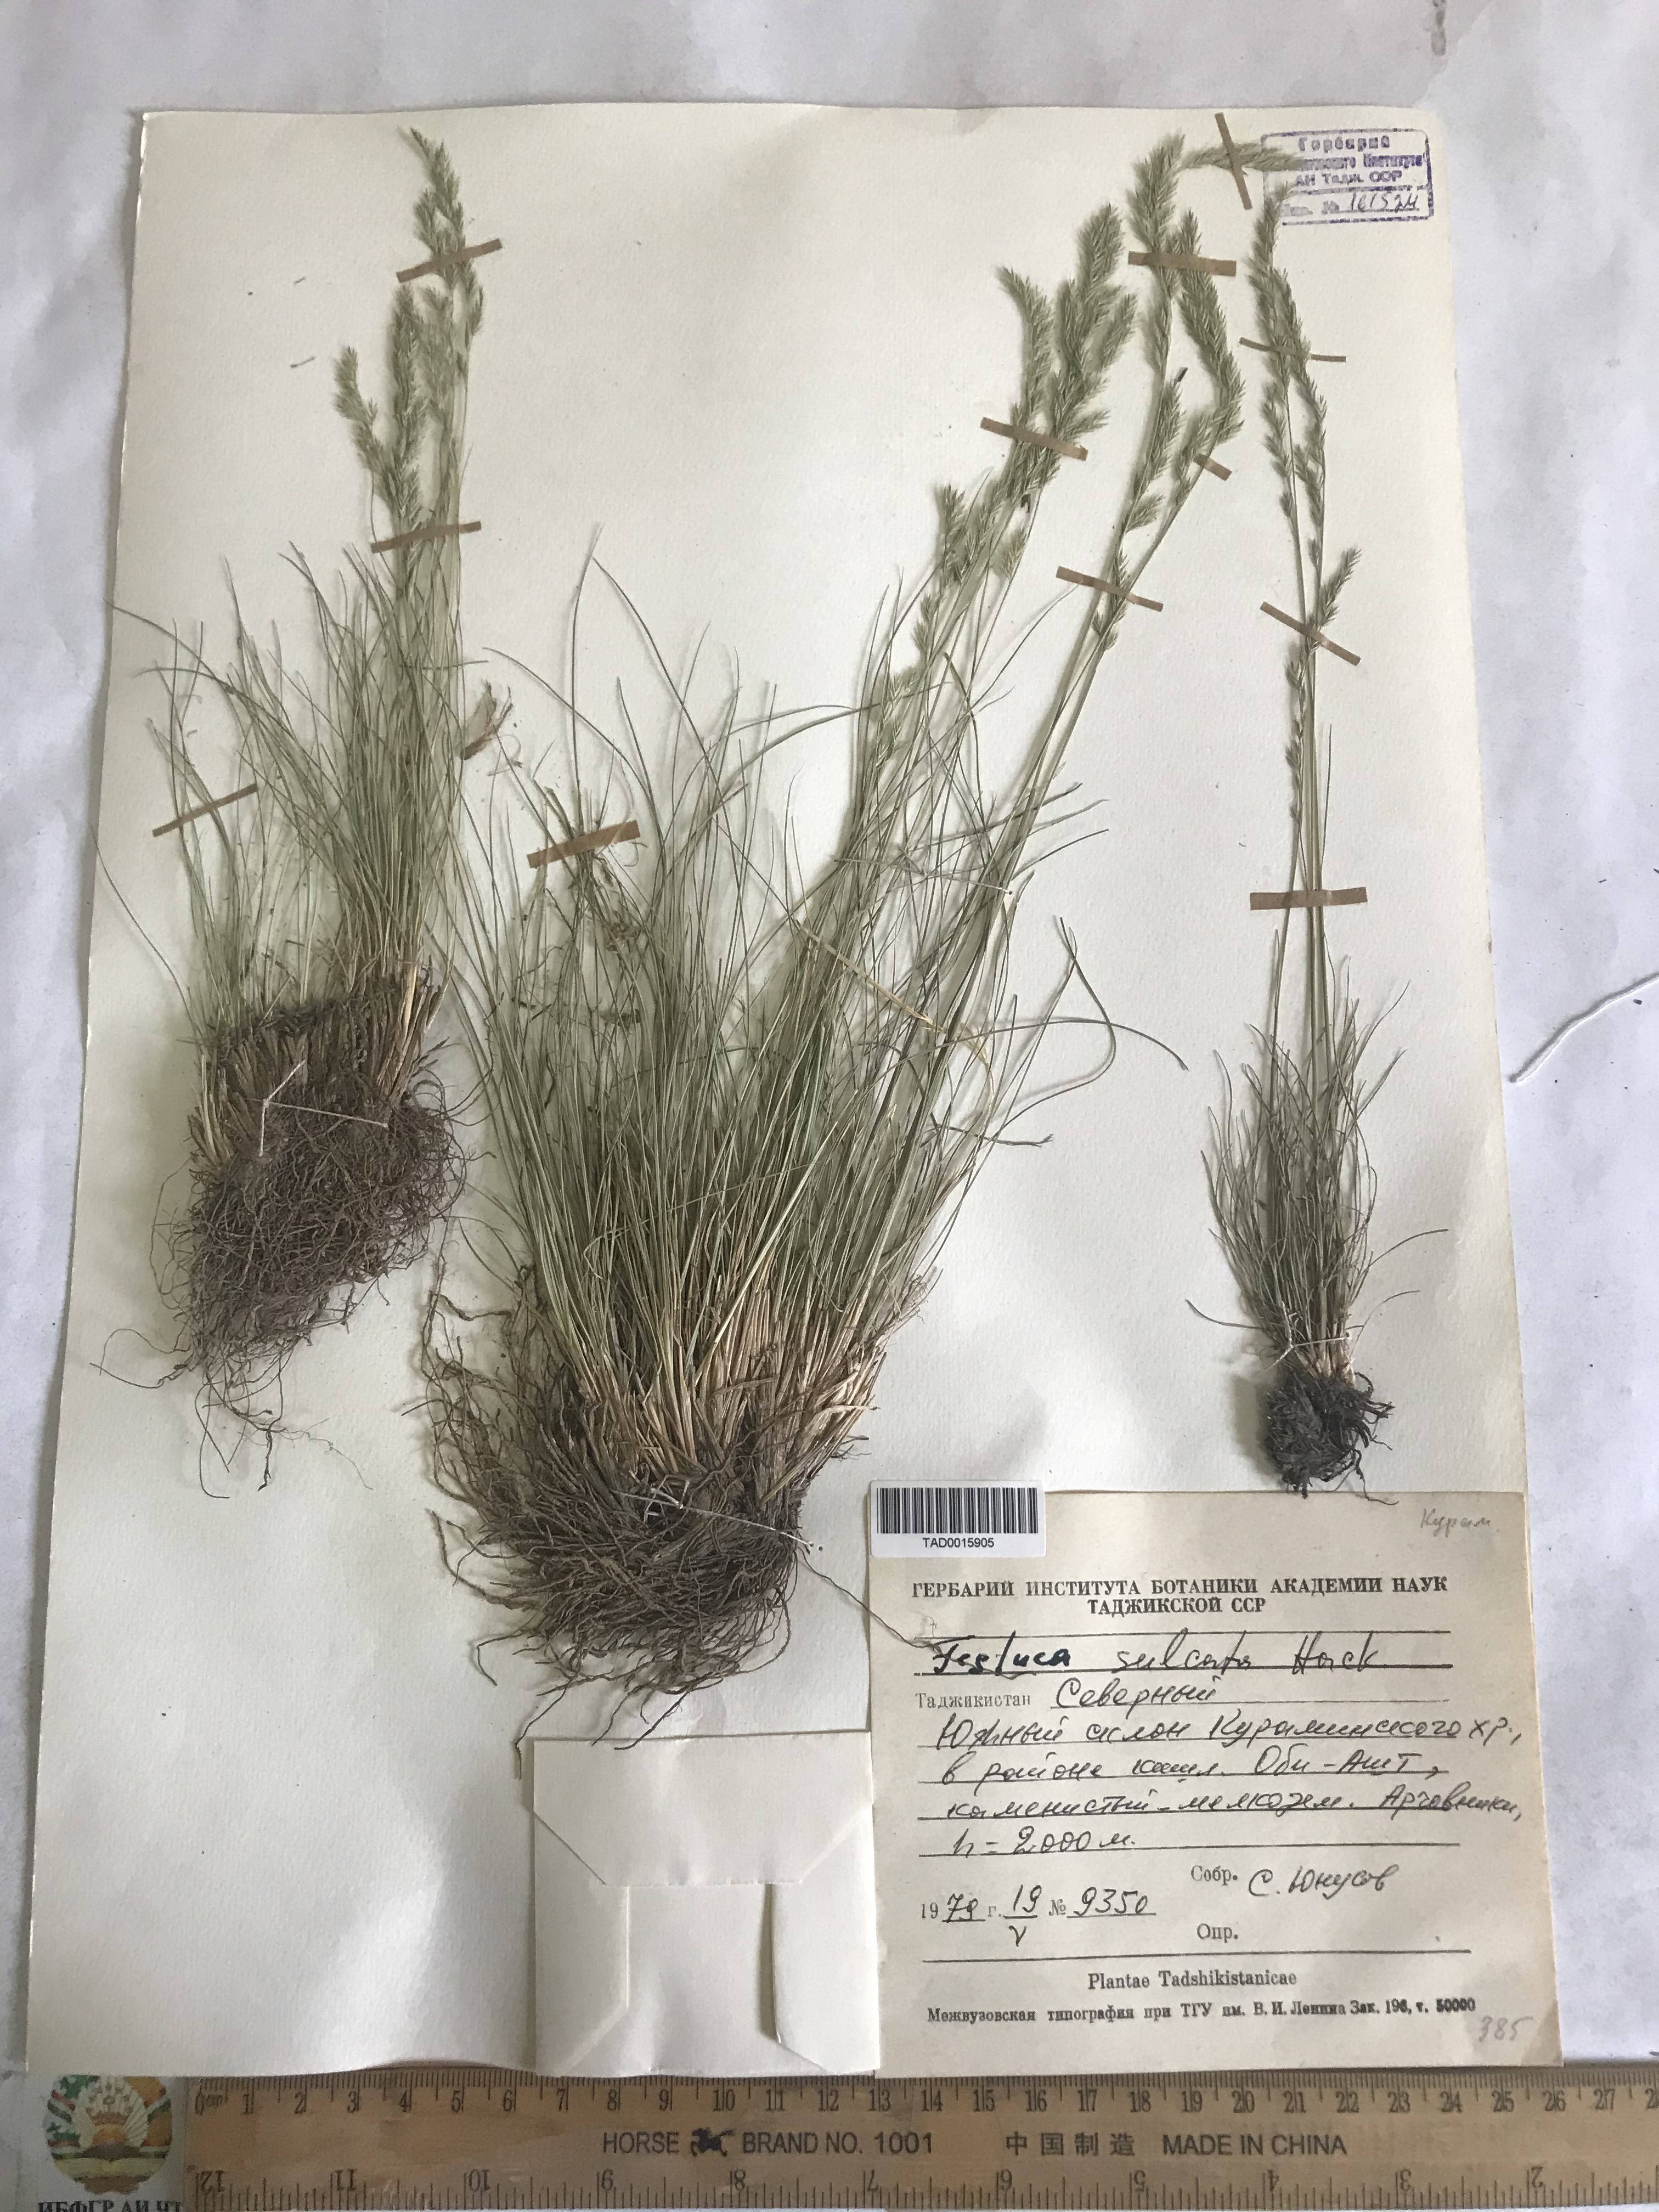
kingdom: Plantae
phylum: Tracheophyta
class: Liliopsida
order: Poales
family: Poaceae
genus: Festuca
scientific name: Festuca sulcata
